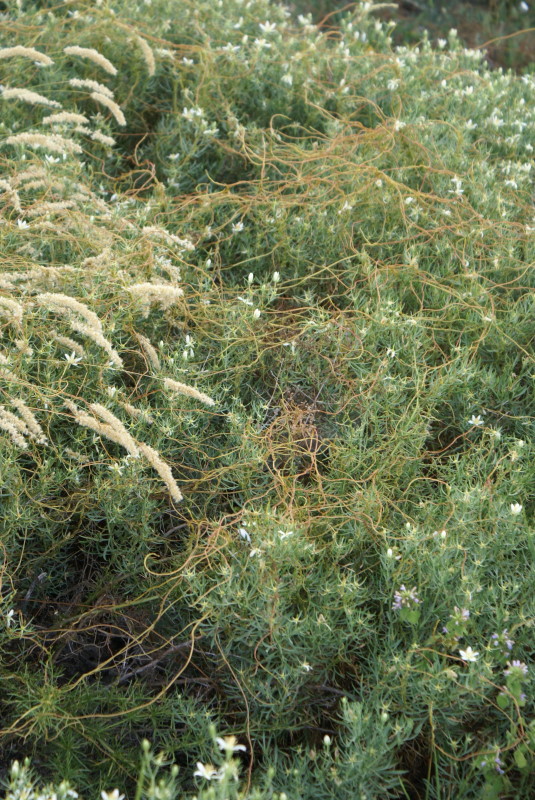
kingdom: Plantae
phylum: Tracheophyta
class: Magnoliopsida
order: Solanales
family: Convolvulaceae
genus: Cuscuta
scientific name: Cuscuta
